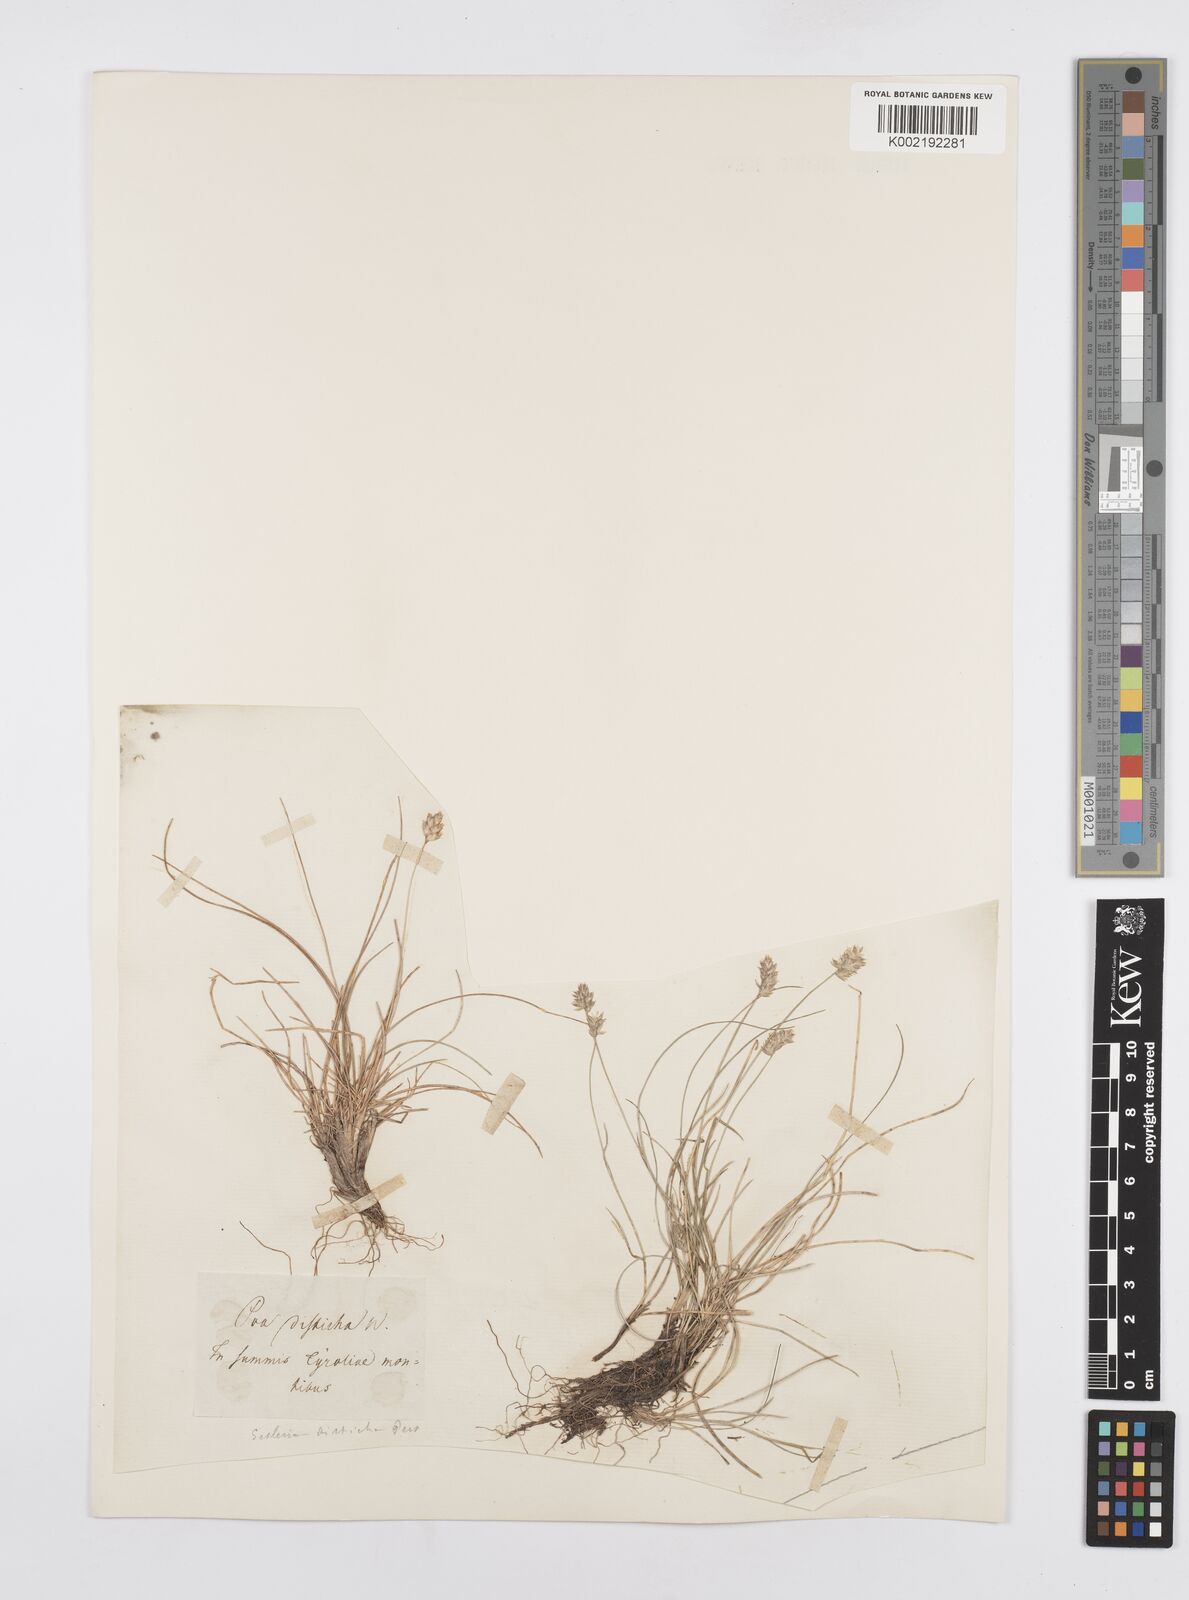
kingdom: Plantae
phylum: Tracheophyta
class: Liliopsida
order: Poales
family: Poaceae
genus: Oreochloa
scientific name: Oreochloa disticha
